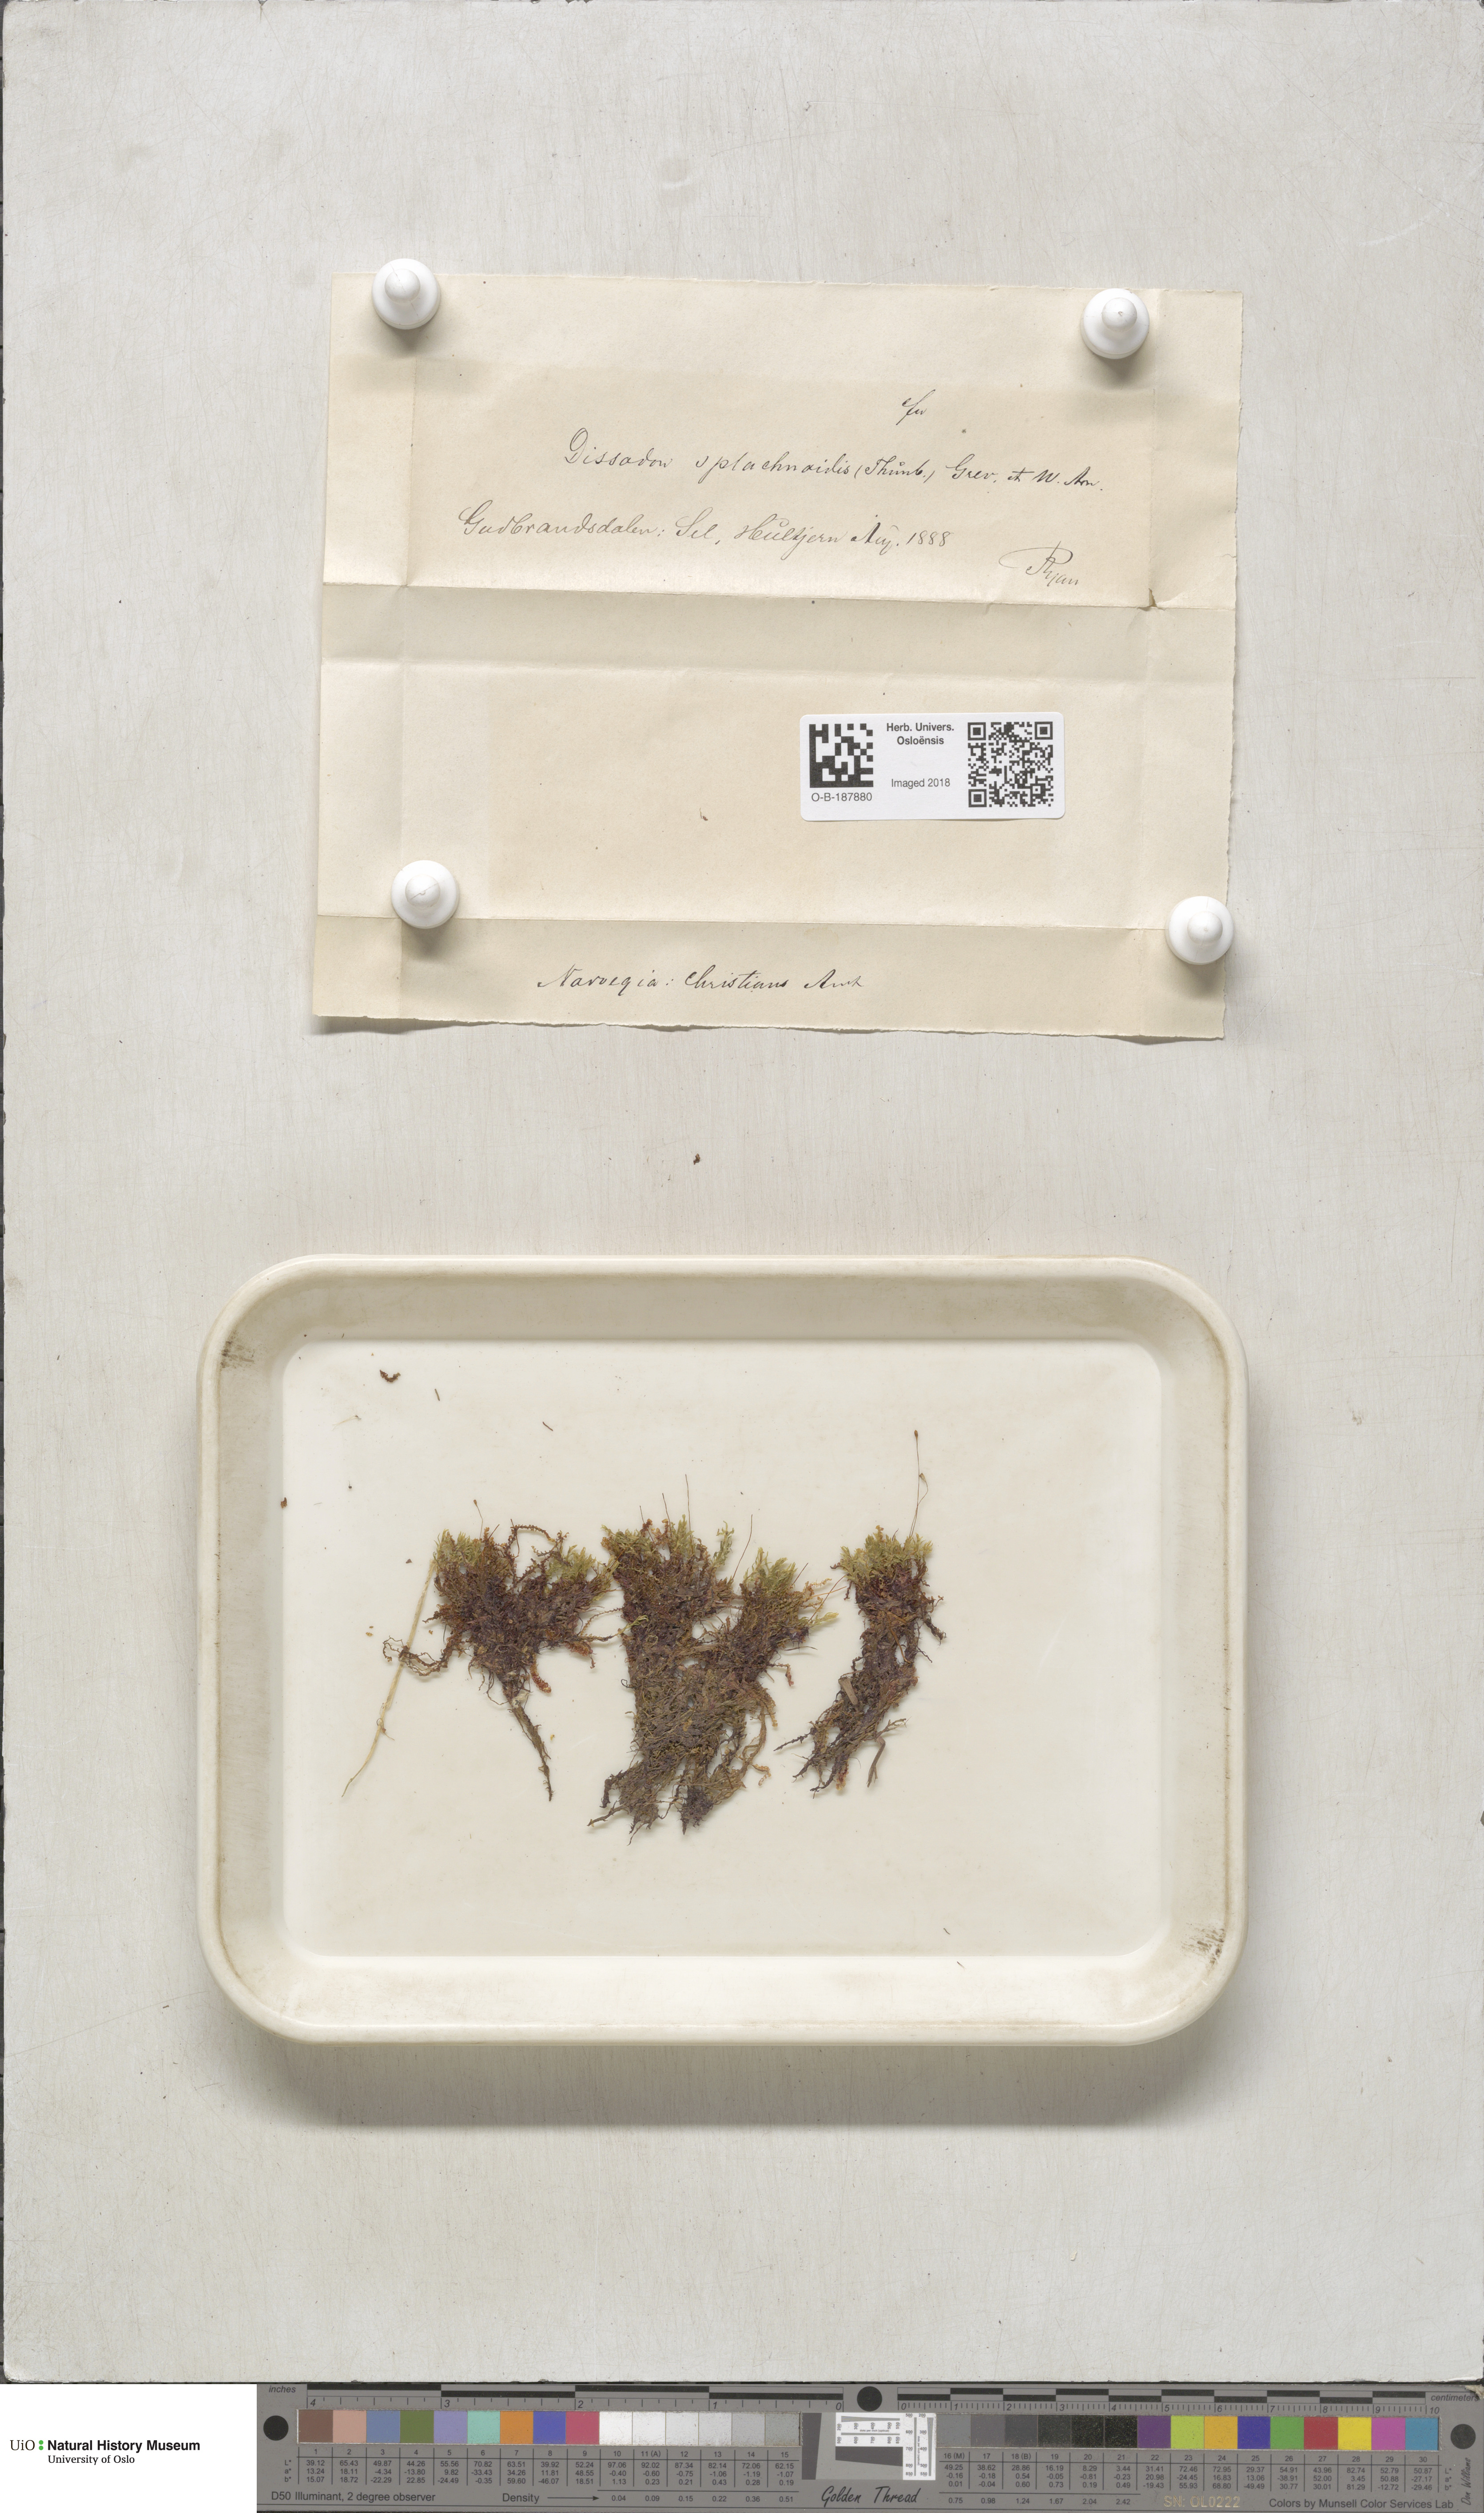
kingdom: Plantae
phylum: Bryophyta
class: Bryopsida
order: Splachnales
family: Splachnaceae
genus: Tayloria
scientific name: Tayloria lingulata
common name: Tongue-leaved trumpet moss
